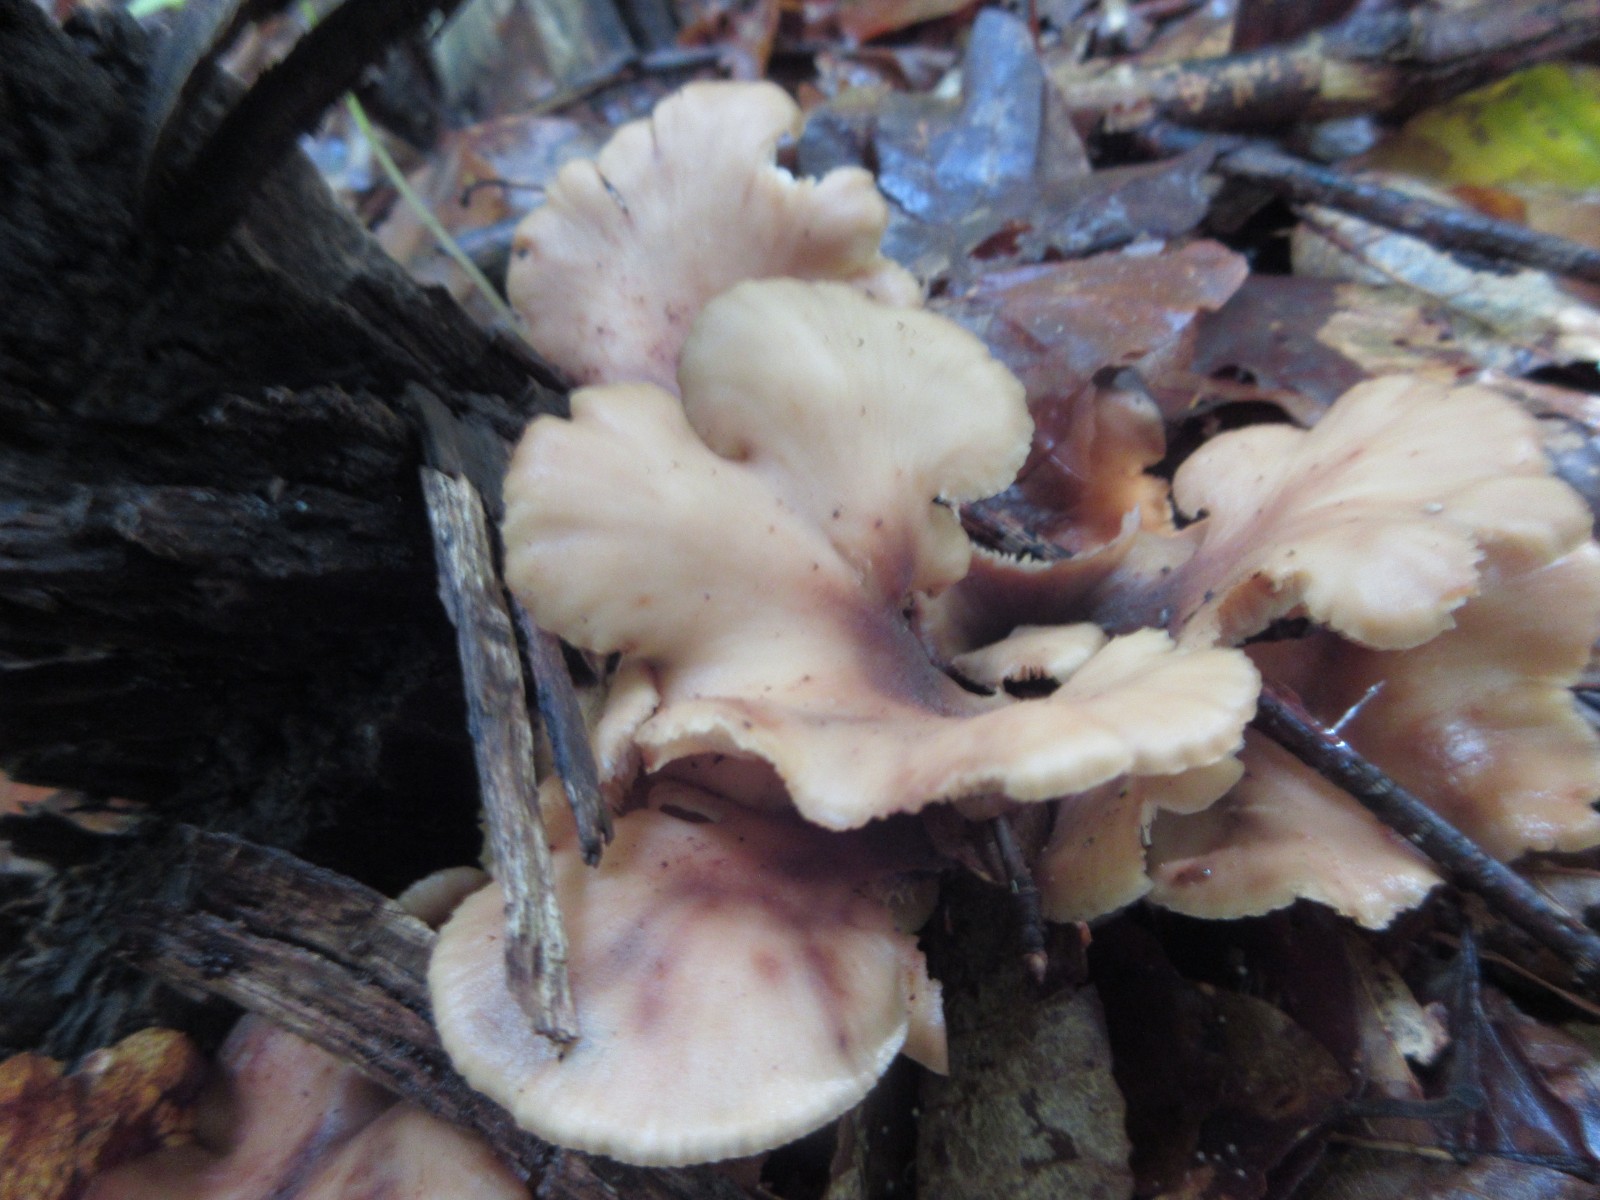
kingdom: Fungi
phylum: Basidiomycota
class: Agaricomycetes
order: Russulales
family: Auriscalpiaceae
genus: Lentinellus
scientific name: Lentinellus cochleatus
